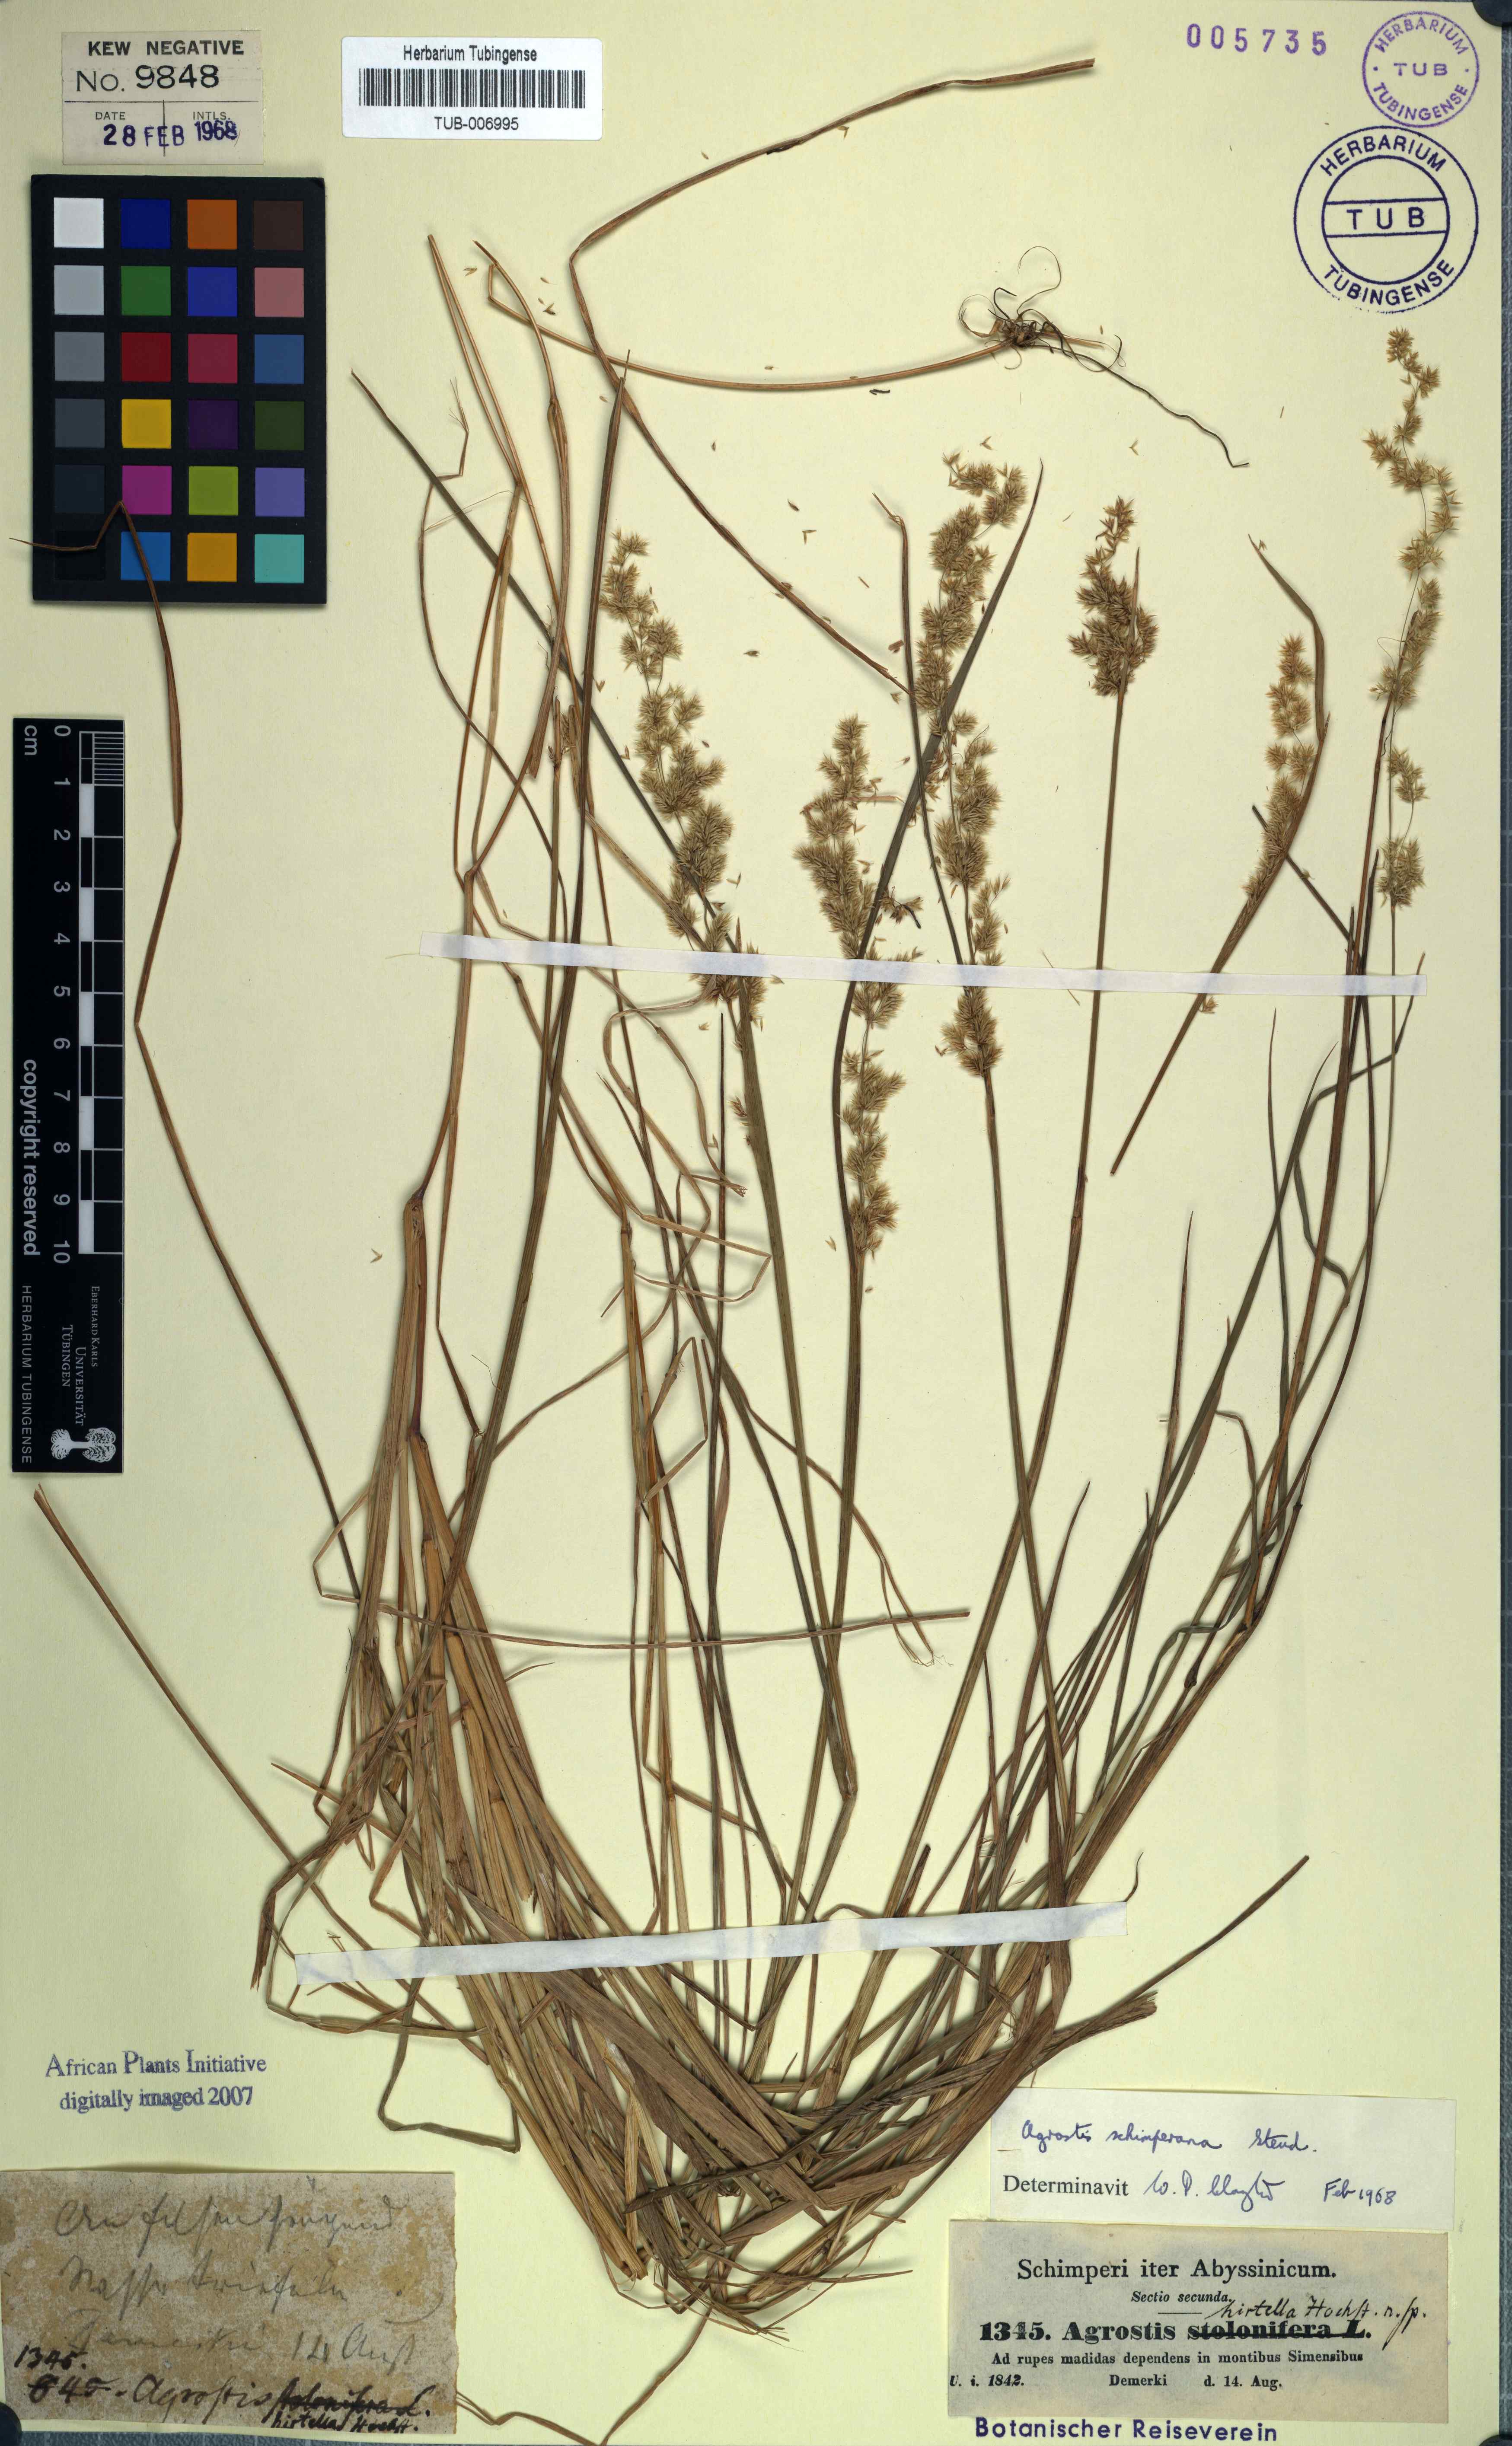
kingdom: Plantae
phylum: Tracheophyta
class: Liliopsida
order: Poales
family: Poaceae
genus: Polypogon
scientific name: Polypogon schimperianus
